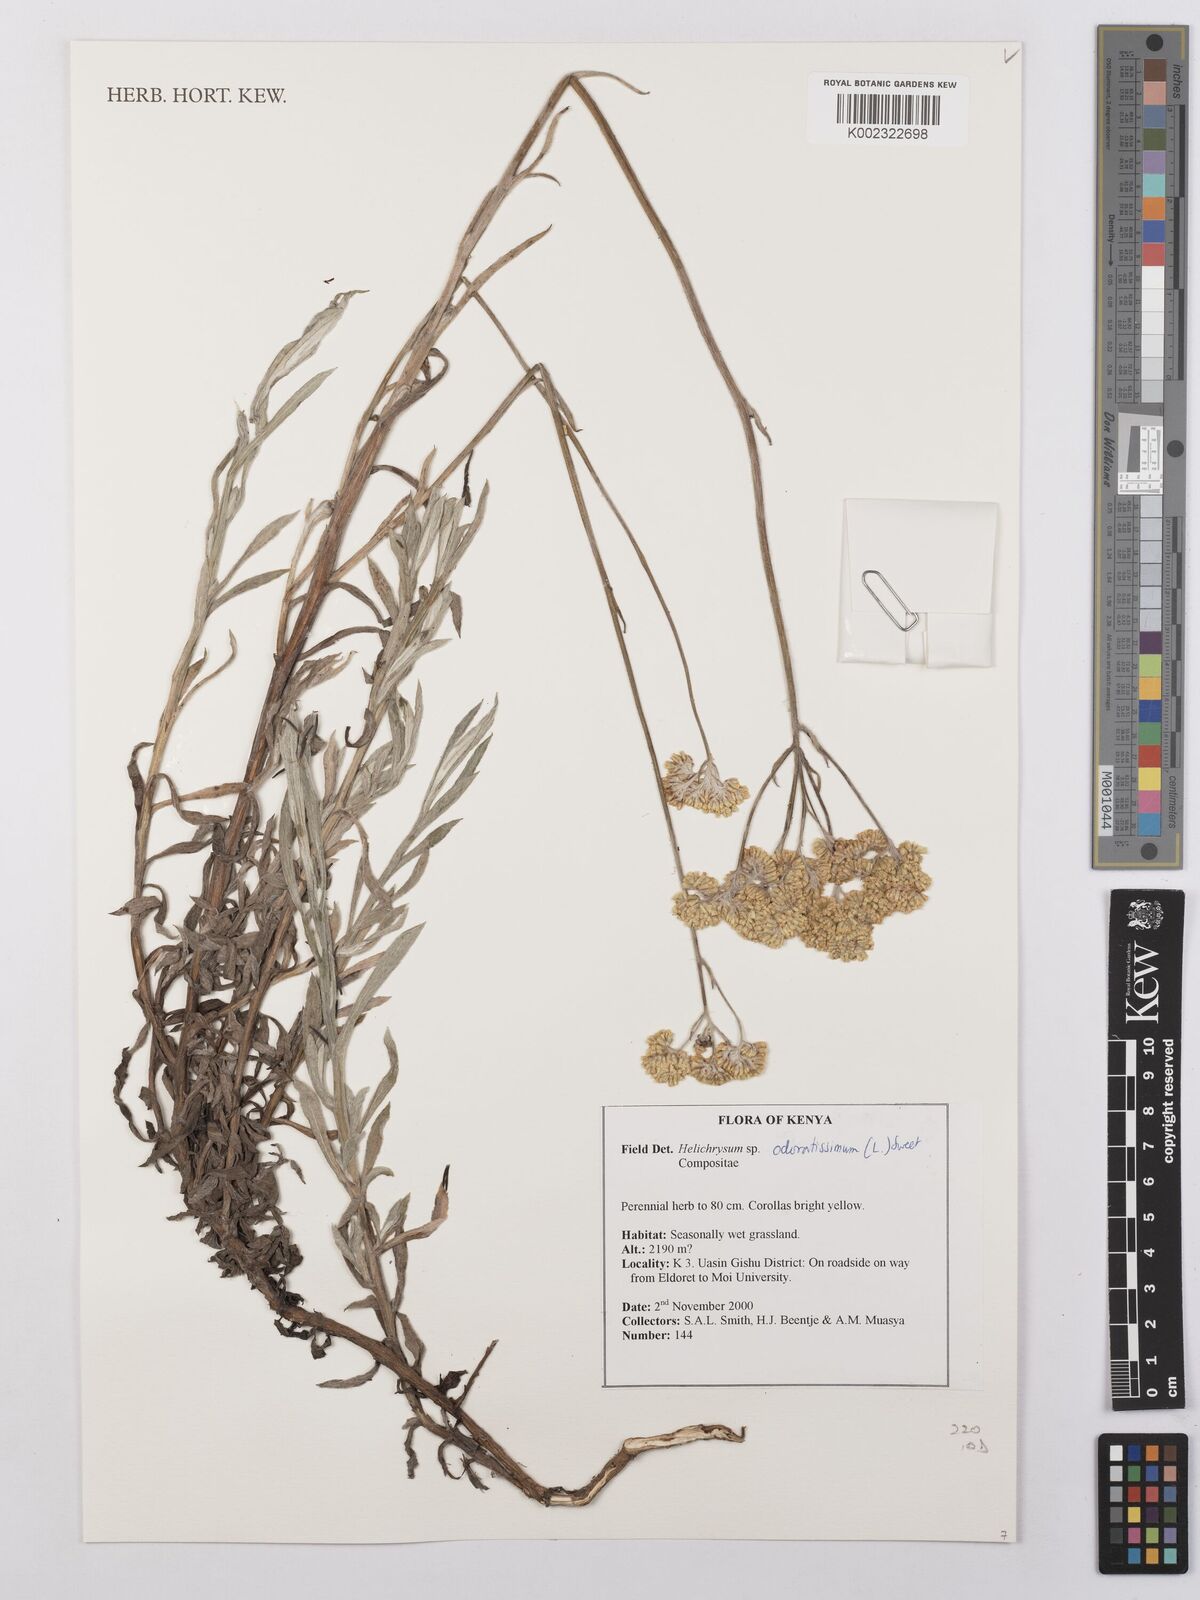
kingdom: Plantae
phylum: Tracheophyta
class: Magnoliopsida
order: Asterales
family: Asteraceae
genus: Helichrysum
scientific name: Helichrysum odoratissimum
